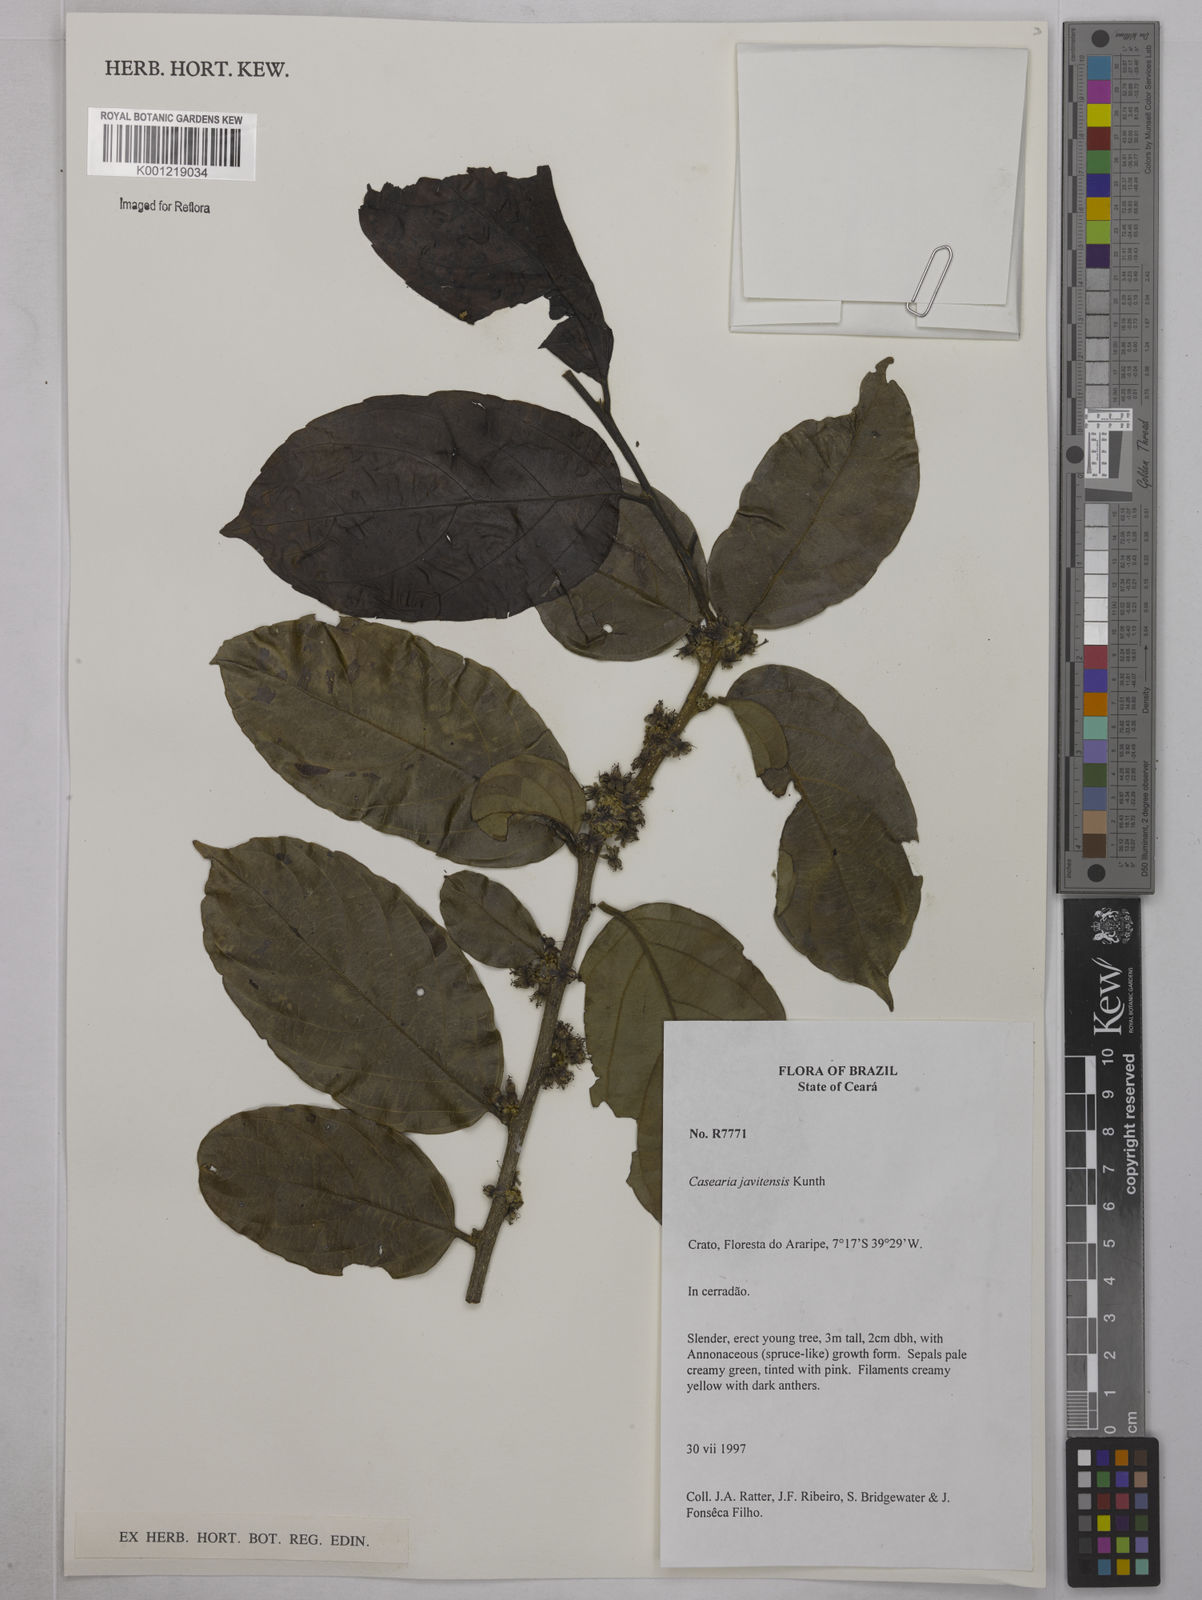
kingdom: Plantae
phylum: Tracheophyta
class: Magnoliopsida
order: Malpighiales
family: Salicaceae
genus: Piparea
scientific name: Piparea multiflora
